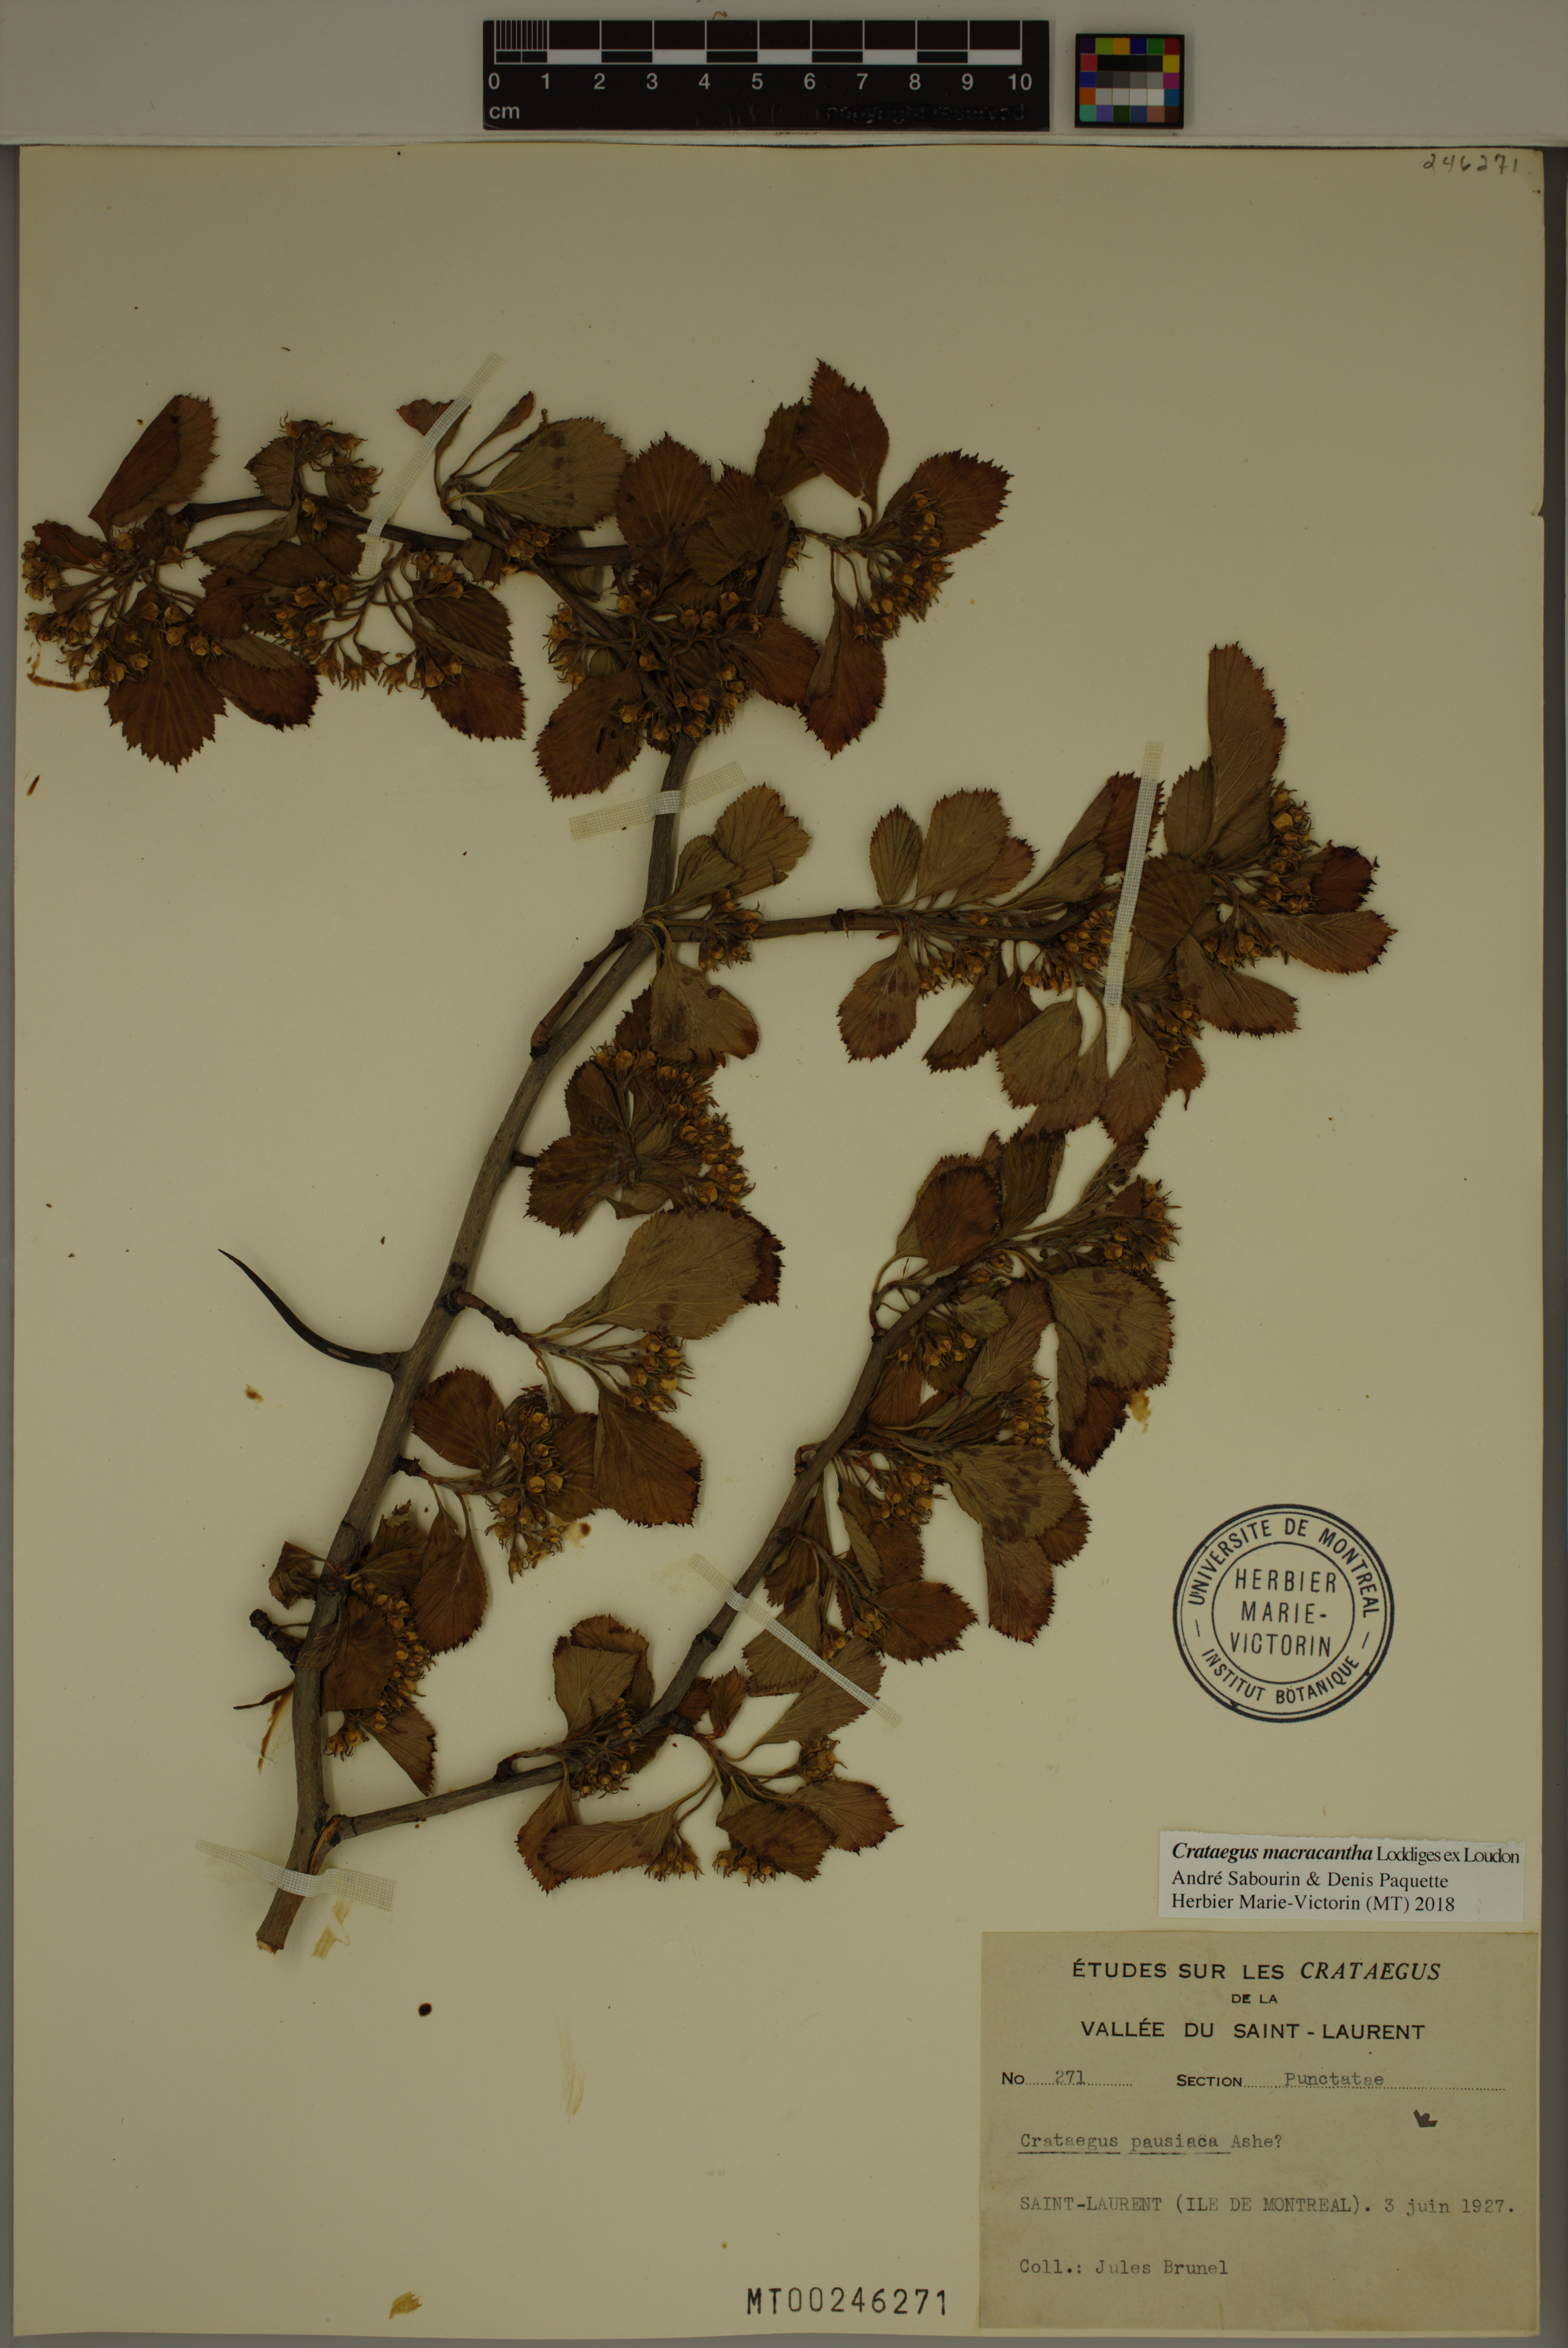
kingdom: Plantae
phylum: Tracheophyta
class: Magnoliopsida
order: Rosales
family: Rosaceae
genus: Crataegus
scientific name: Crataegus macracantha
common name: Large-thorn hawthorn
